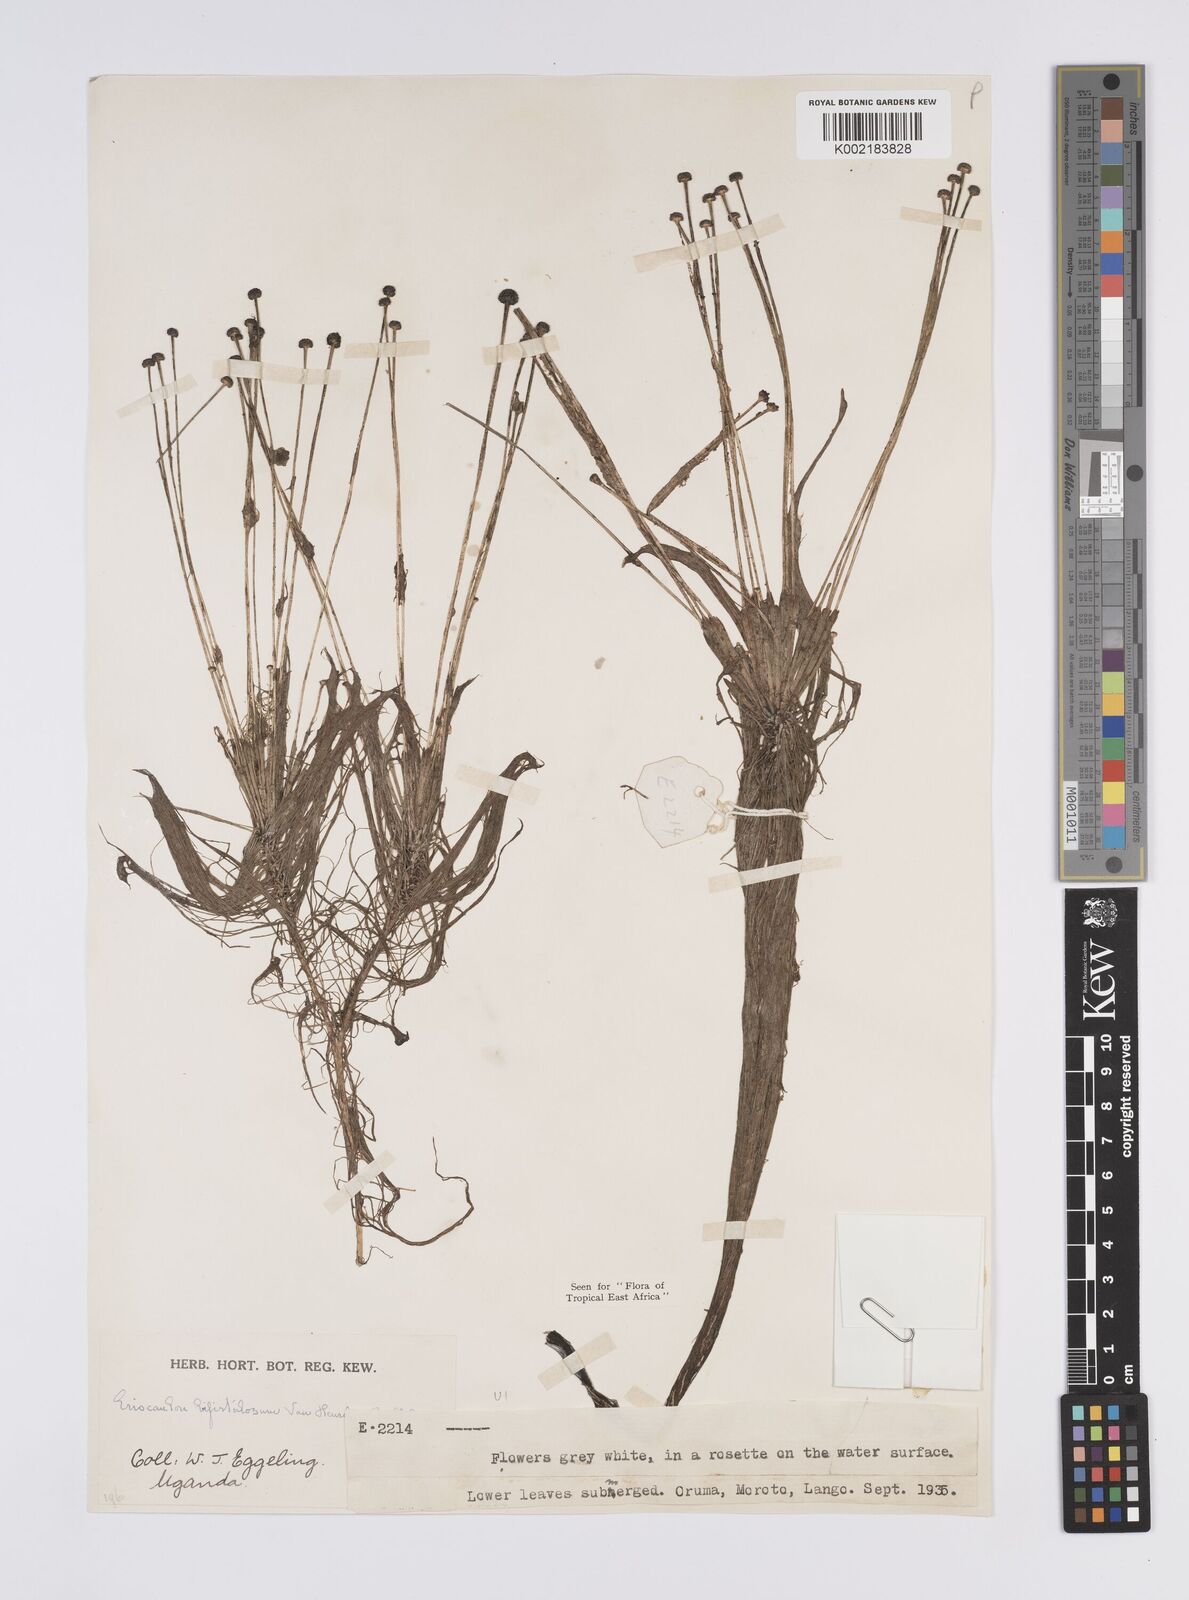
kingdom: Plantae
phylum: Tracheophyta
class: Liliopsida
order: Poales
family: Eriocaulaceae
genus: Eriocaulon
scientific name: Eriocaulon setaceum
